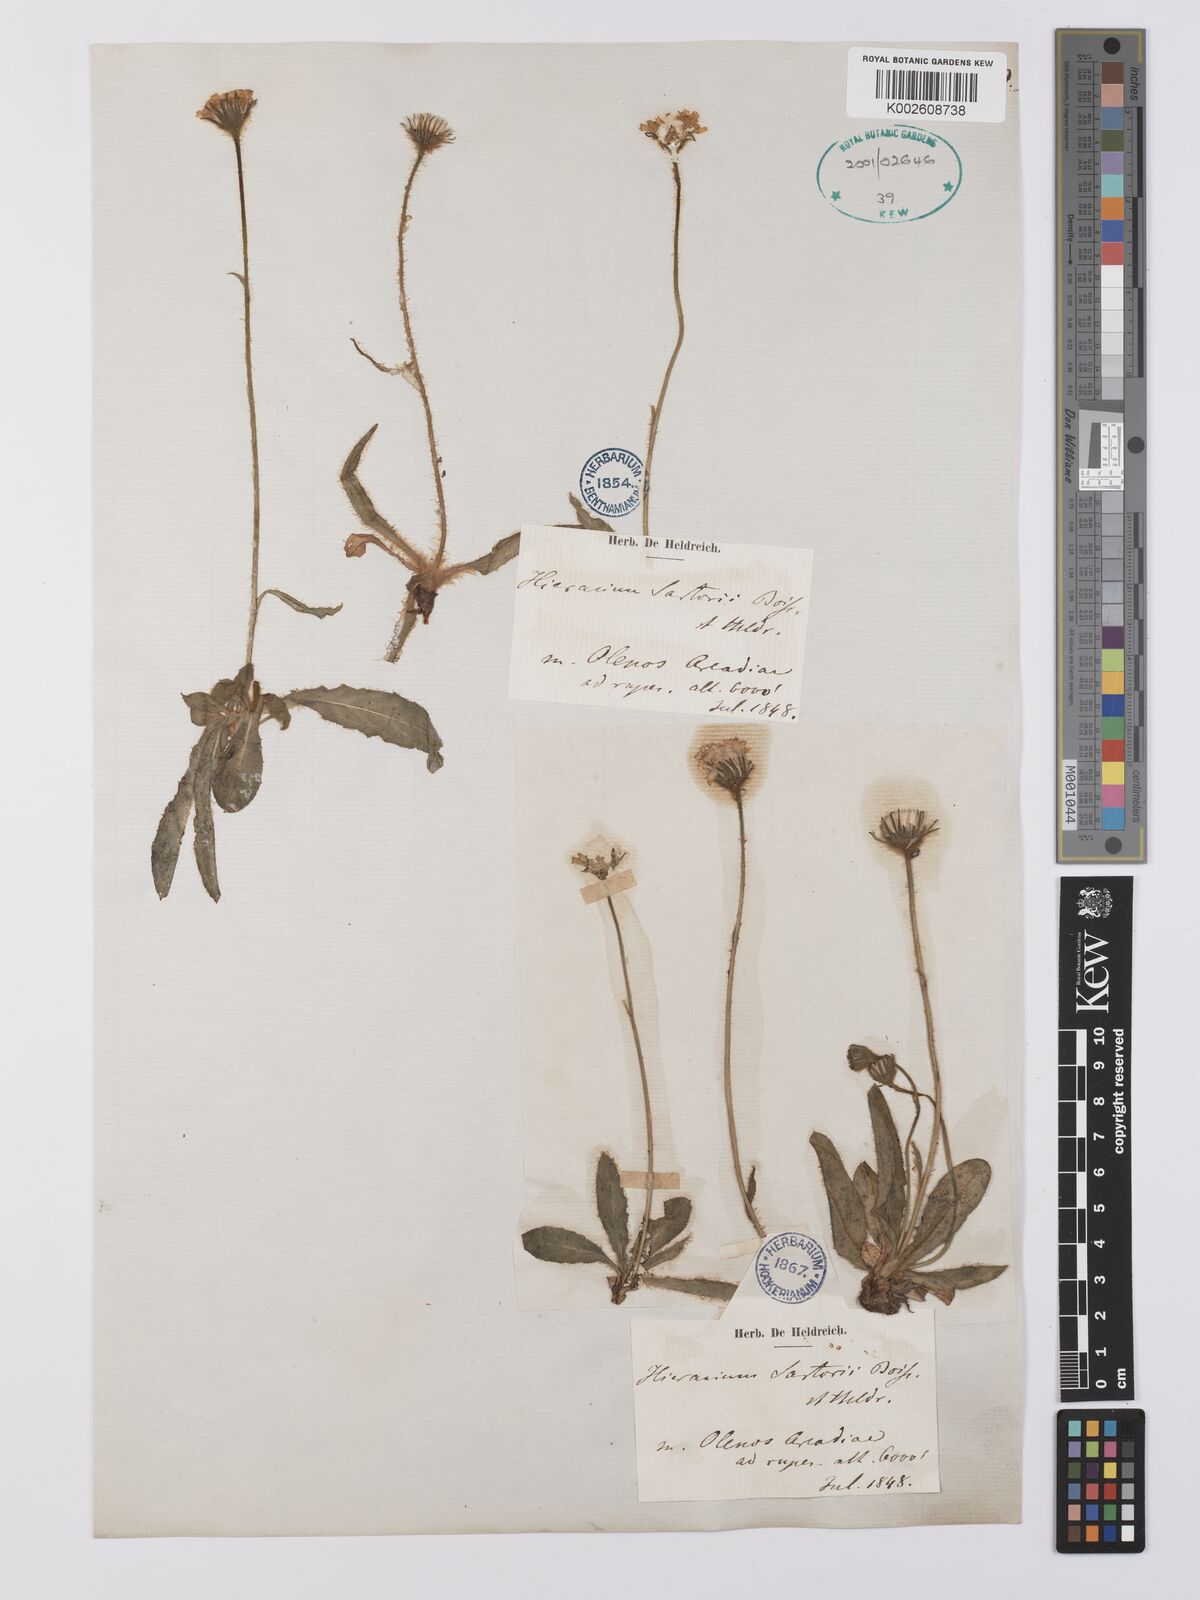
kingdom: Plantae
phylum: Tracheophyta
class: Magnoliopsida
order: Asterales
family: Asteraceae
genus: Hieracium
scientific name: Hieracium sartorianum
